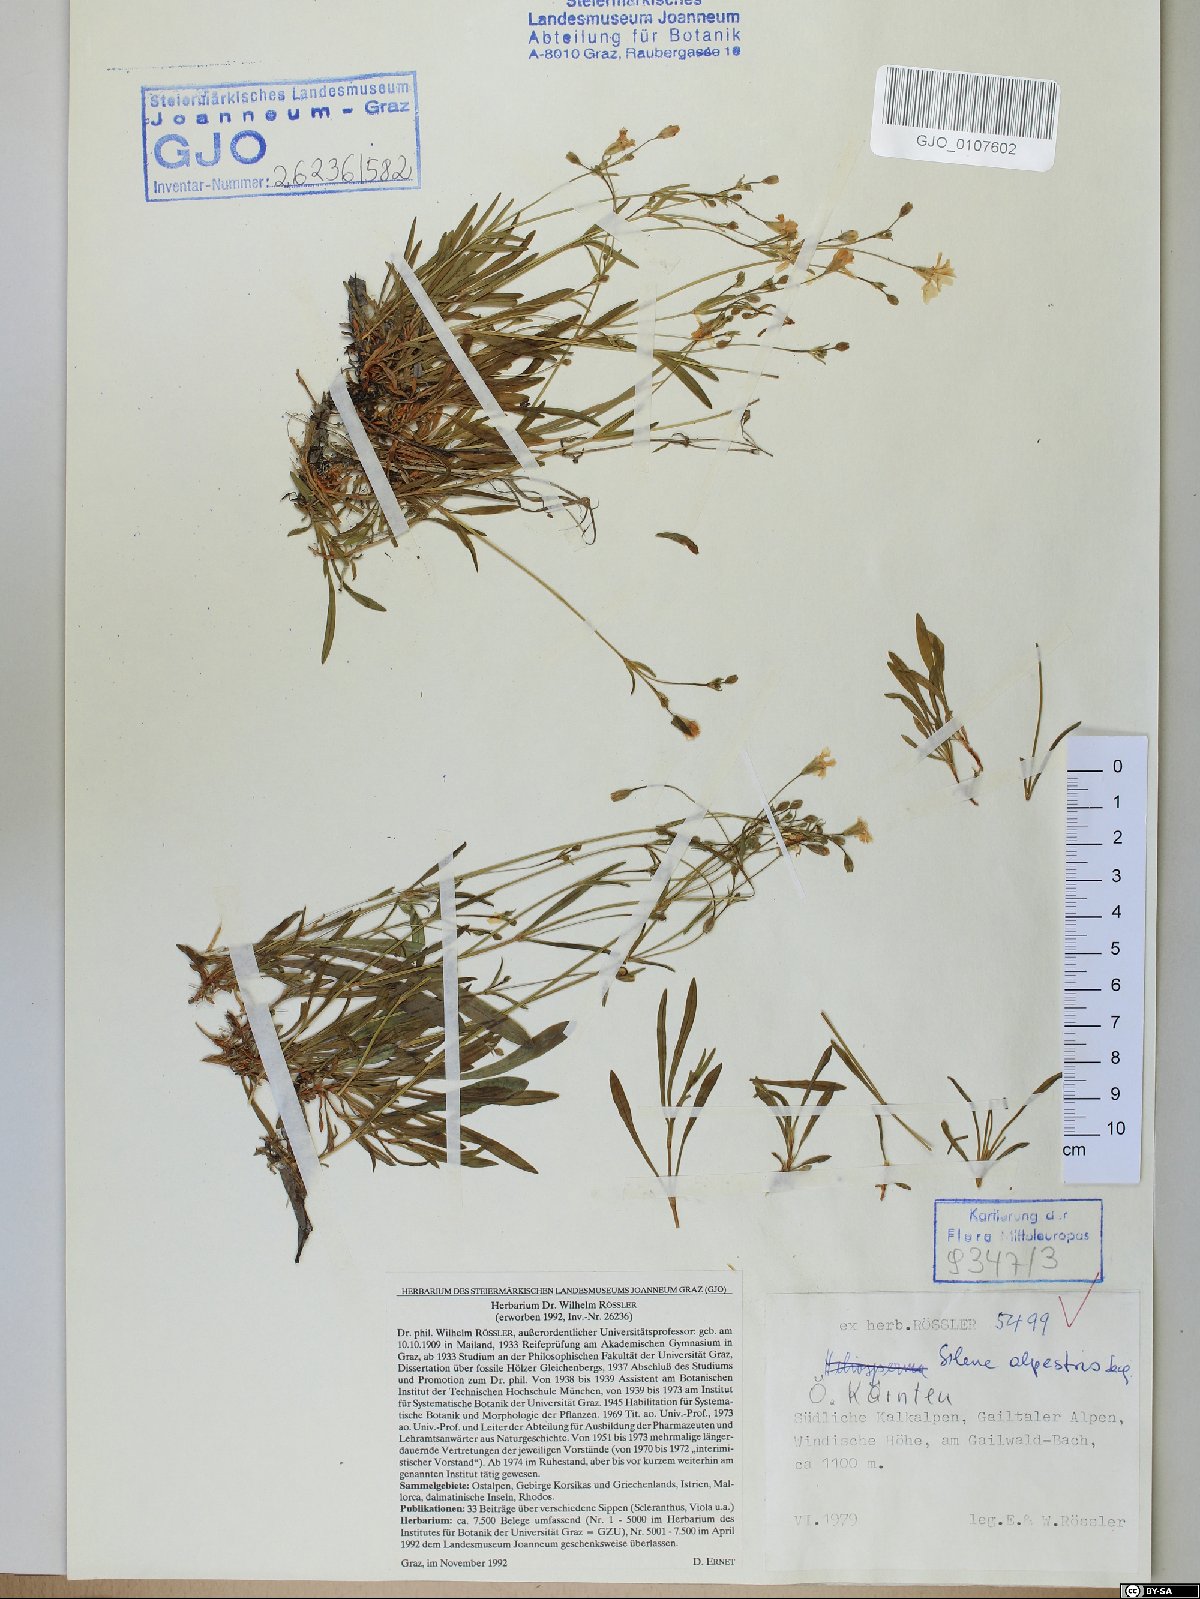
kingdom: Plantae
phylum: Tracheophyta
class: Magnoliopsida
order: Caryophyllales
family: Caryophyllaceae
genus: Heliosperma
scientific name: Heliosperma alpestre
